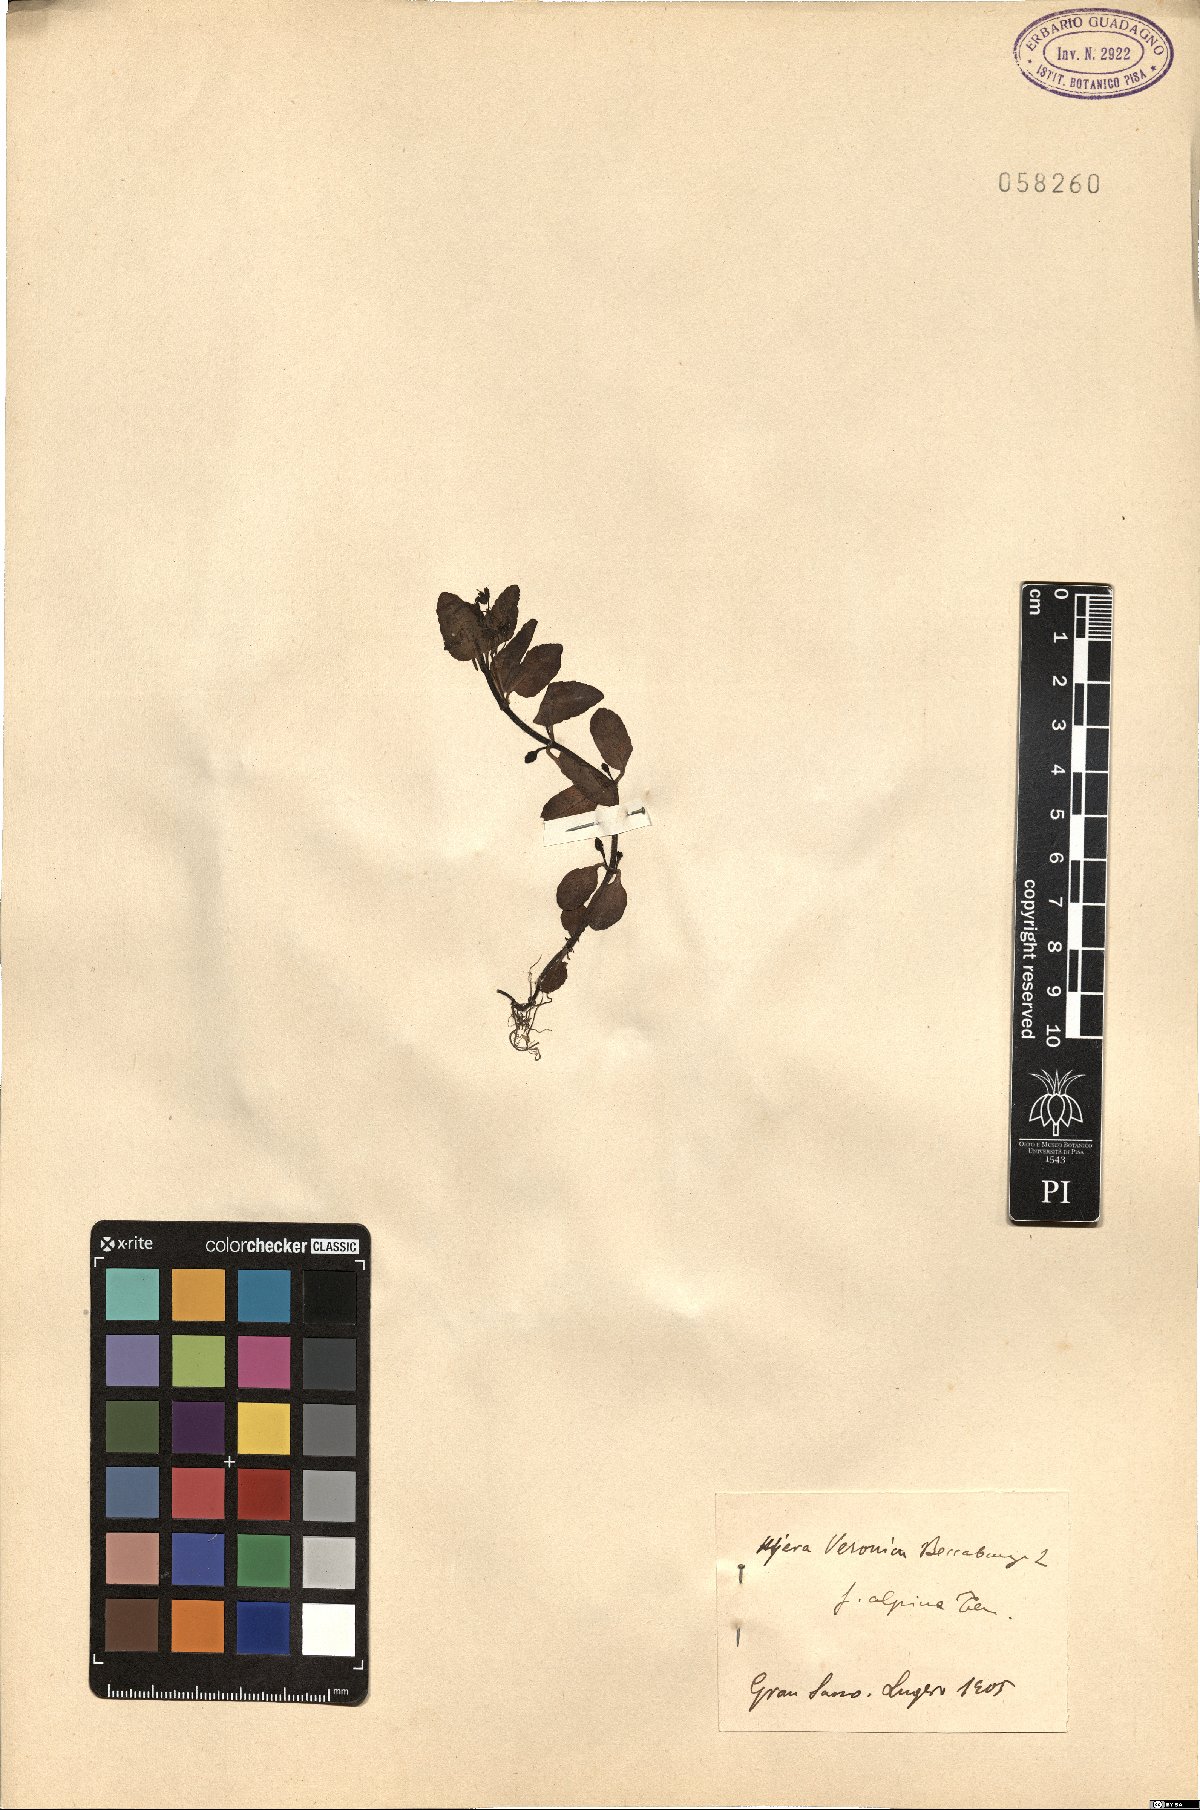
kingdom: Plantae
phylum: Tracheophyta
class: Magnoliopsida
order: Lamiales
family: Plantaginaceae
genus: Veronica
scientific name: Veronica beccabunga
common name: Brooklime
